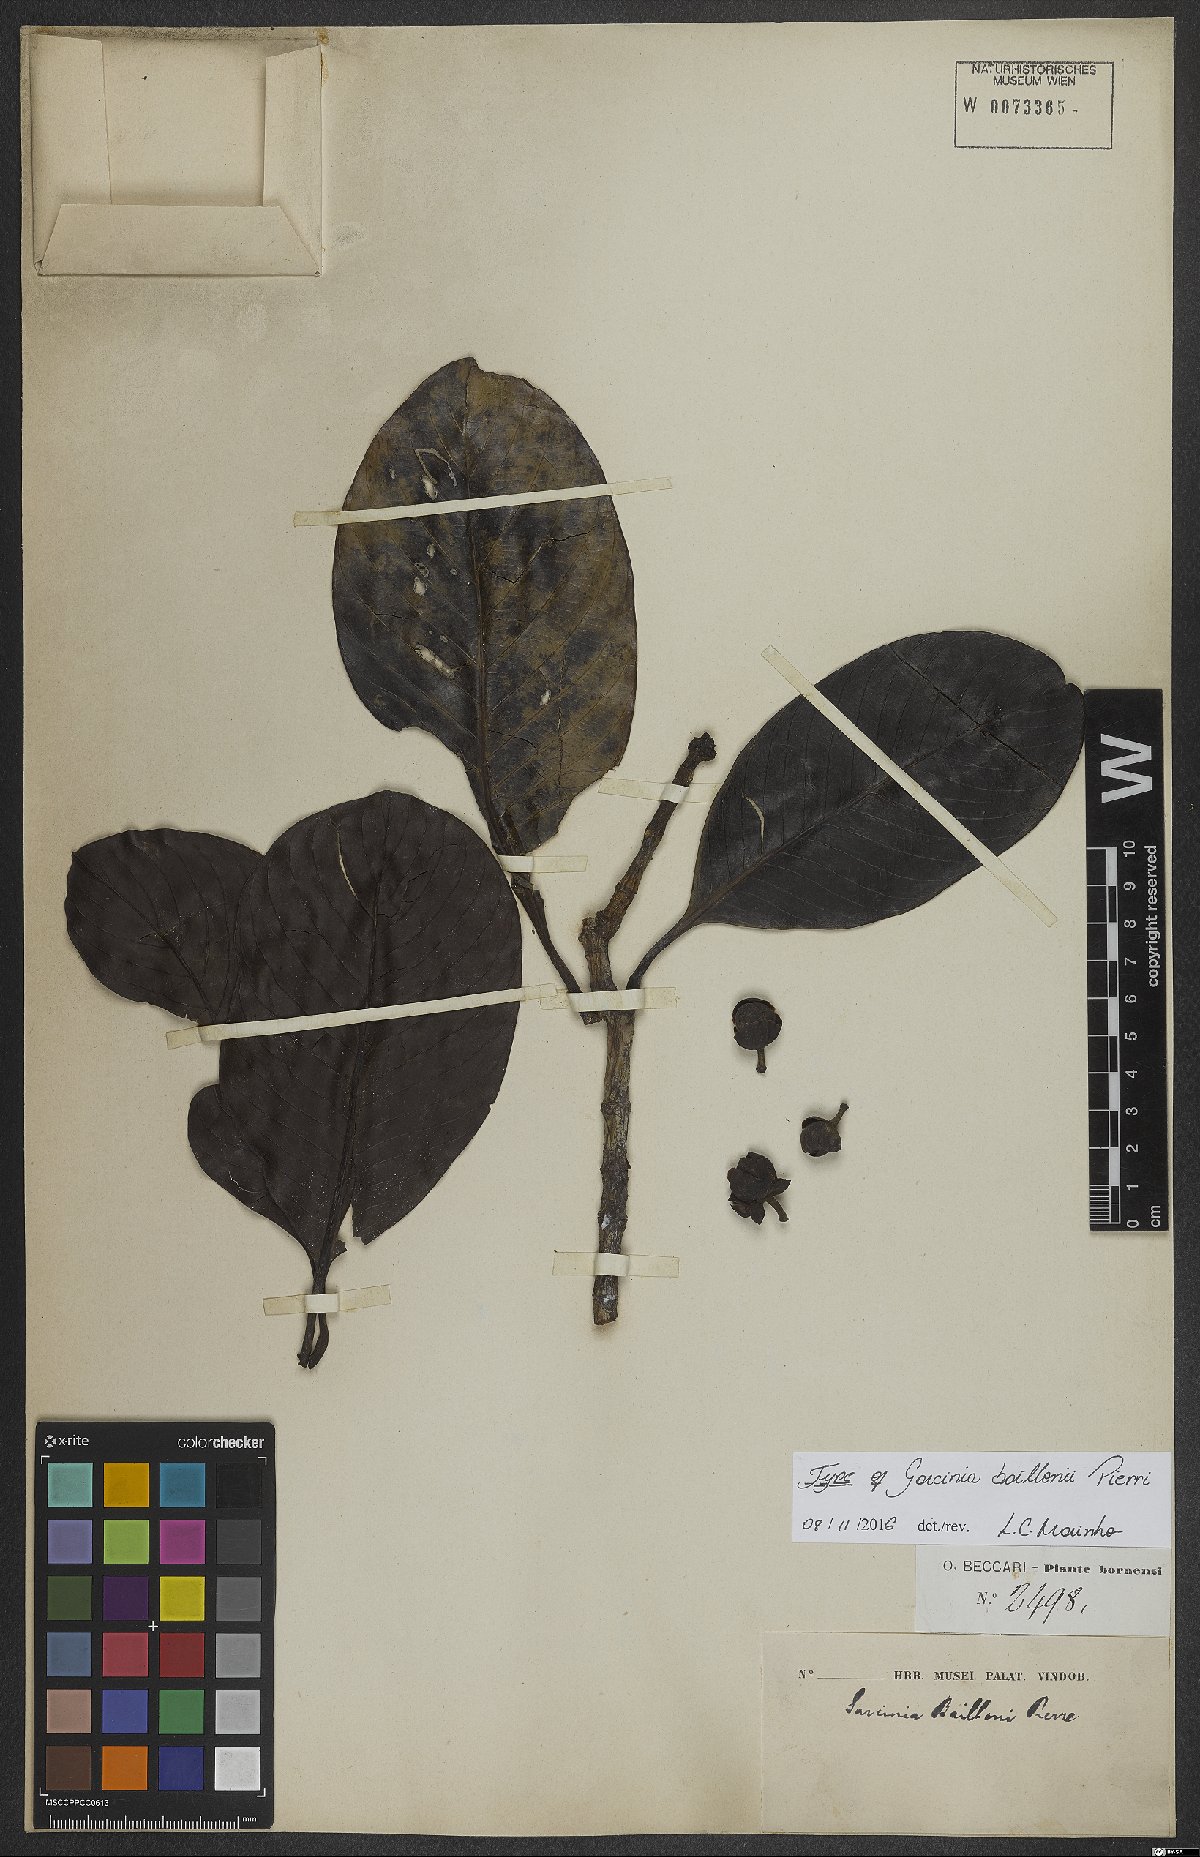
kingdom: Plantae
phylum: Tracheophyta
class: Magnoliopsida
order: Malpighiales
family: Clusiaceae
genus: Garcinia
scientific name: Garcinia maingayi
